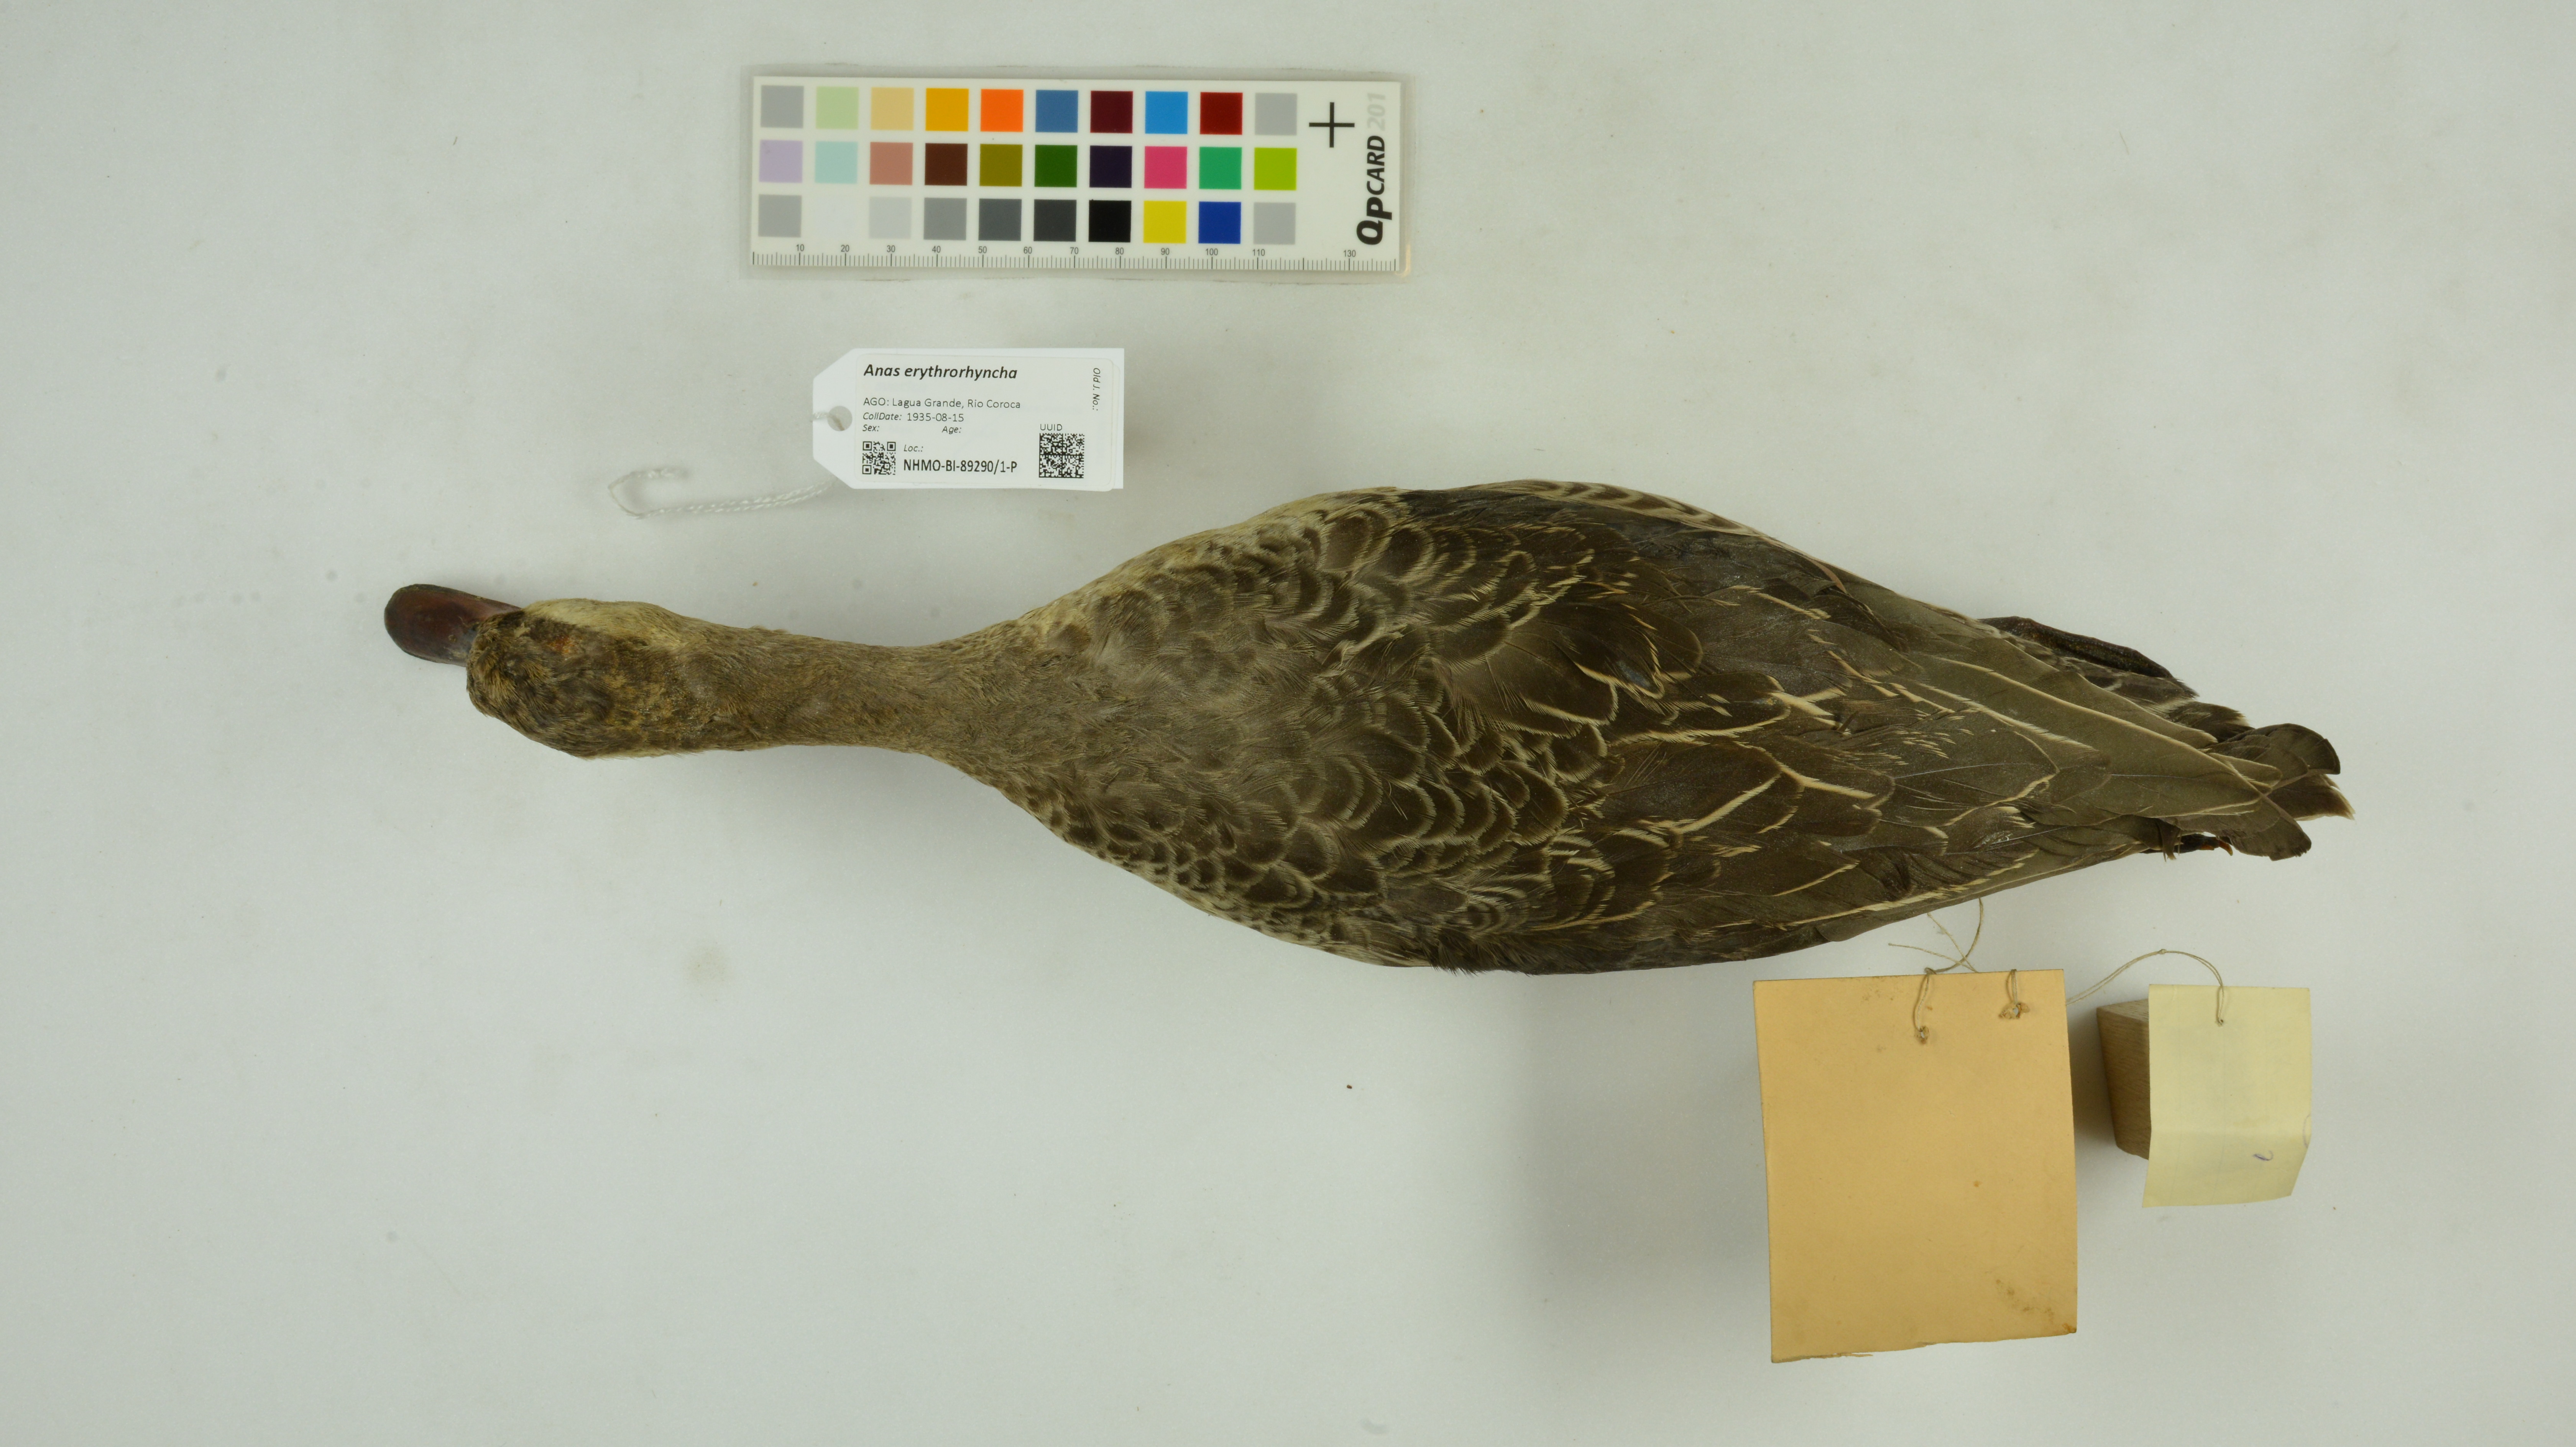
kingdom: Animalia
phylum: Chordata
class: Aves
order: Anseriformes
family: Anatidae
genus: Anas
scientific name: Anas erythrorhyncha
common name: Red-billed teal
